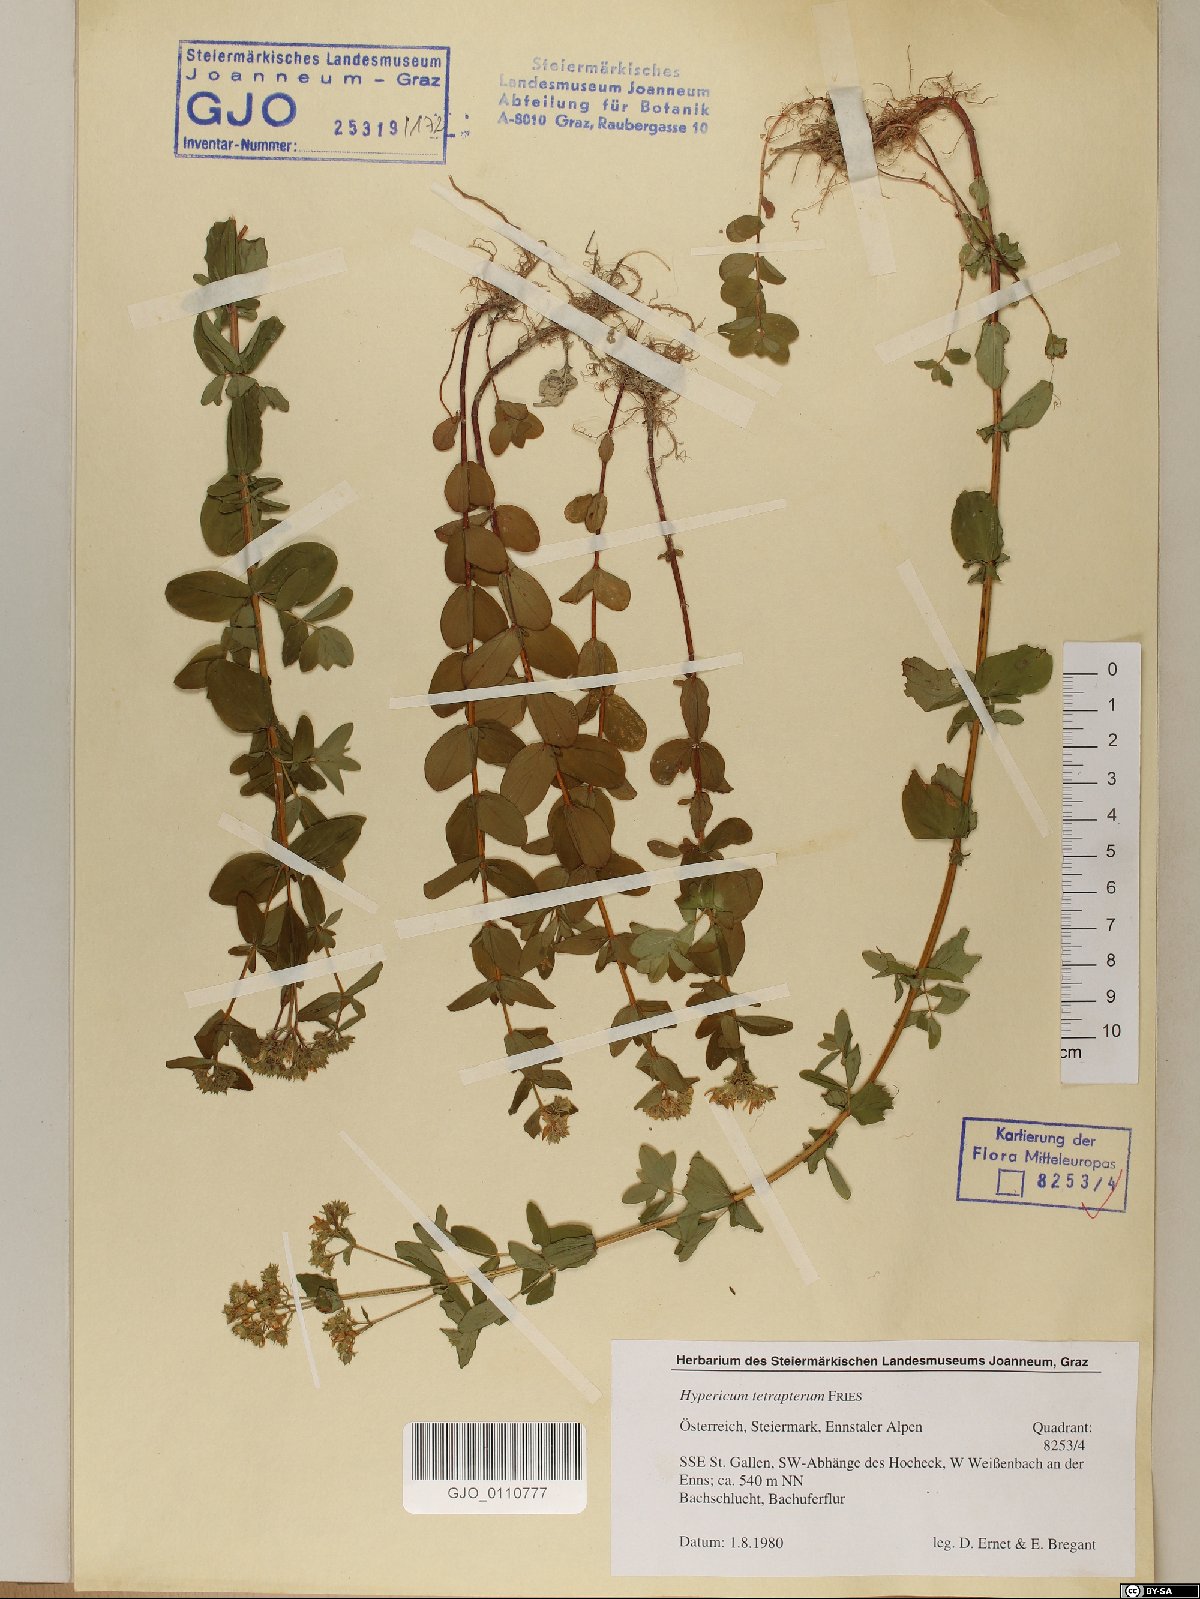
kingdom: Plantae
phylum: Tracheophyta
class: Magnoliopsida
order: Malpighiales
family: Hypericaceae
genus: Hypericum
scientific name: Hypericum tetrapterum
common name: Square-stalked st. john's-wort
